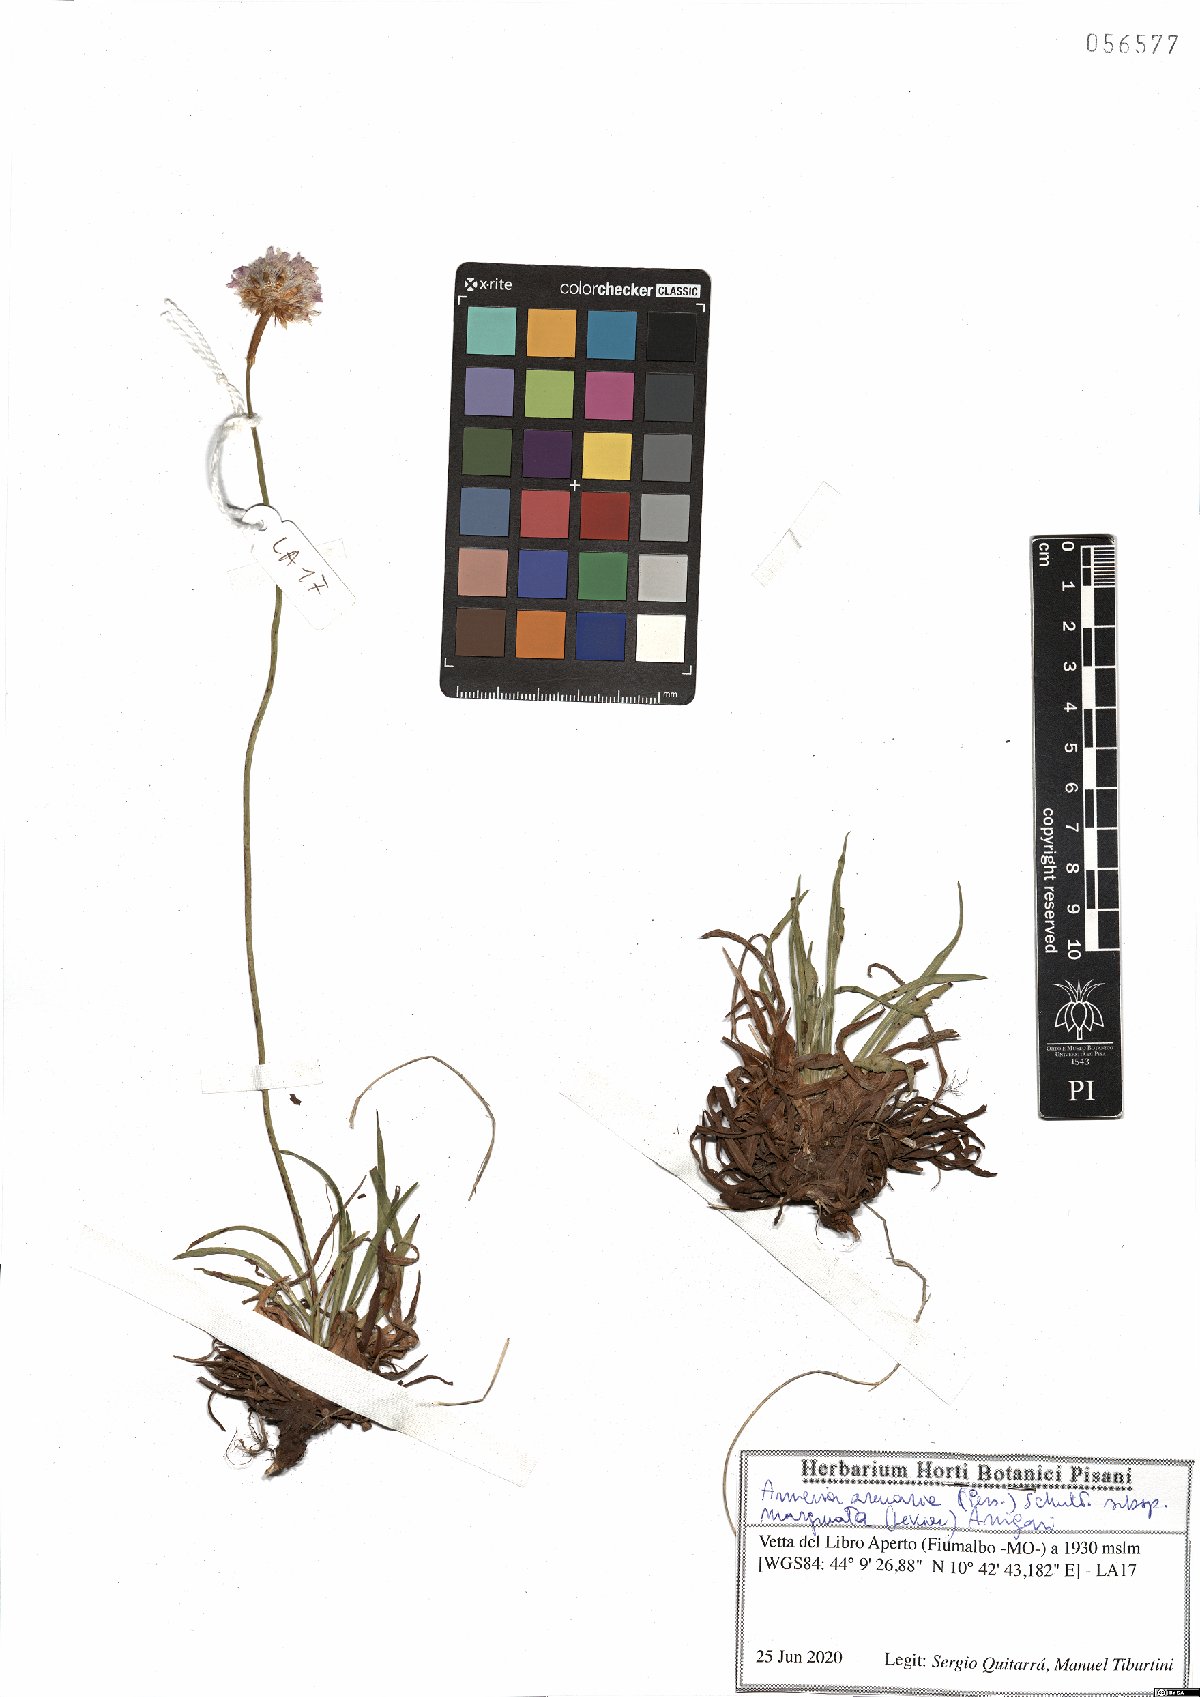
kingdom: Plantae
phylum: Tracheophyta
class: Magnoliopsida
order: Caryophyllales
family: Plumbaginaceae
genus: Armeria
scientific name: Armeria arenaria
